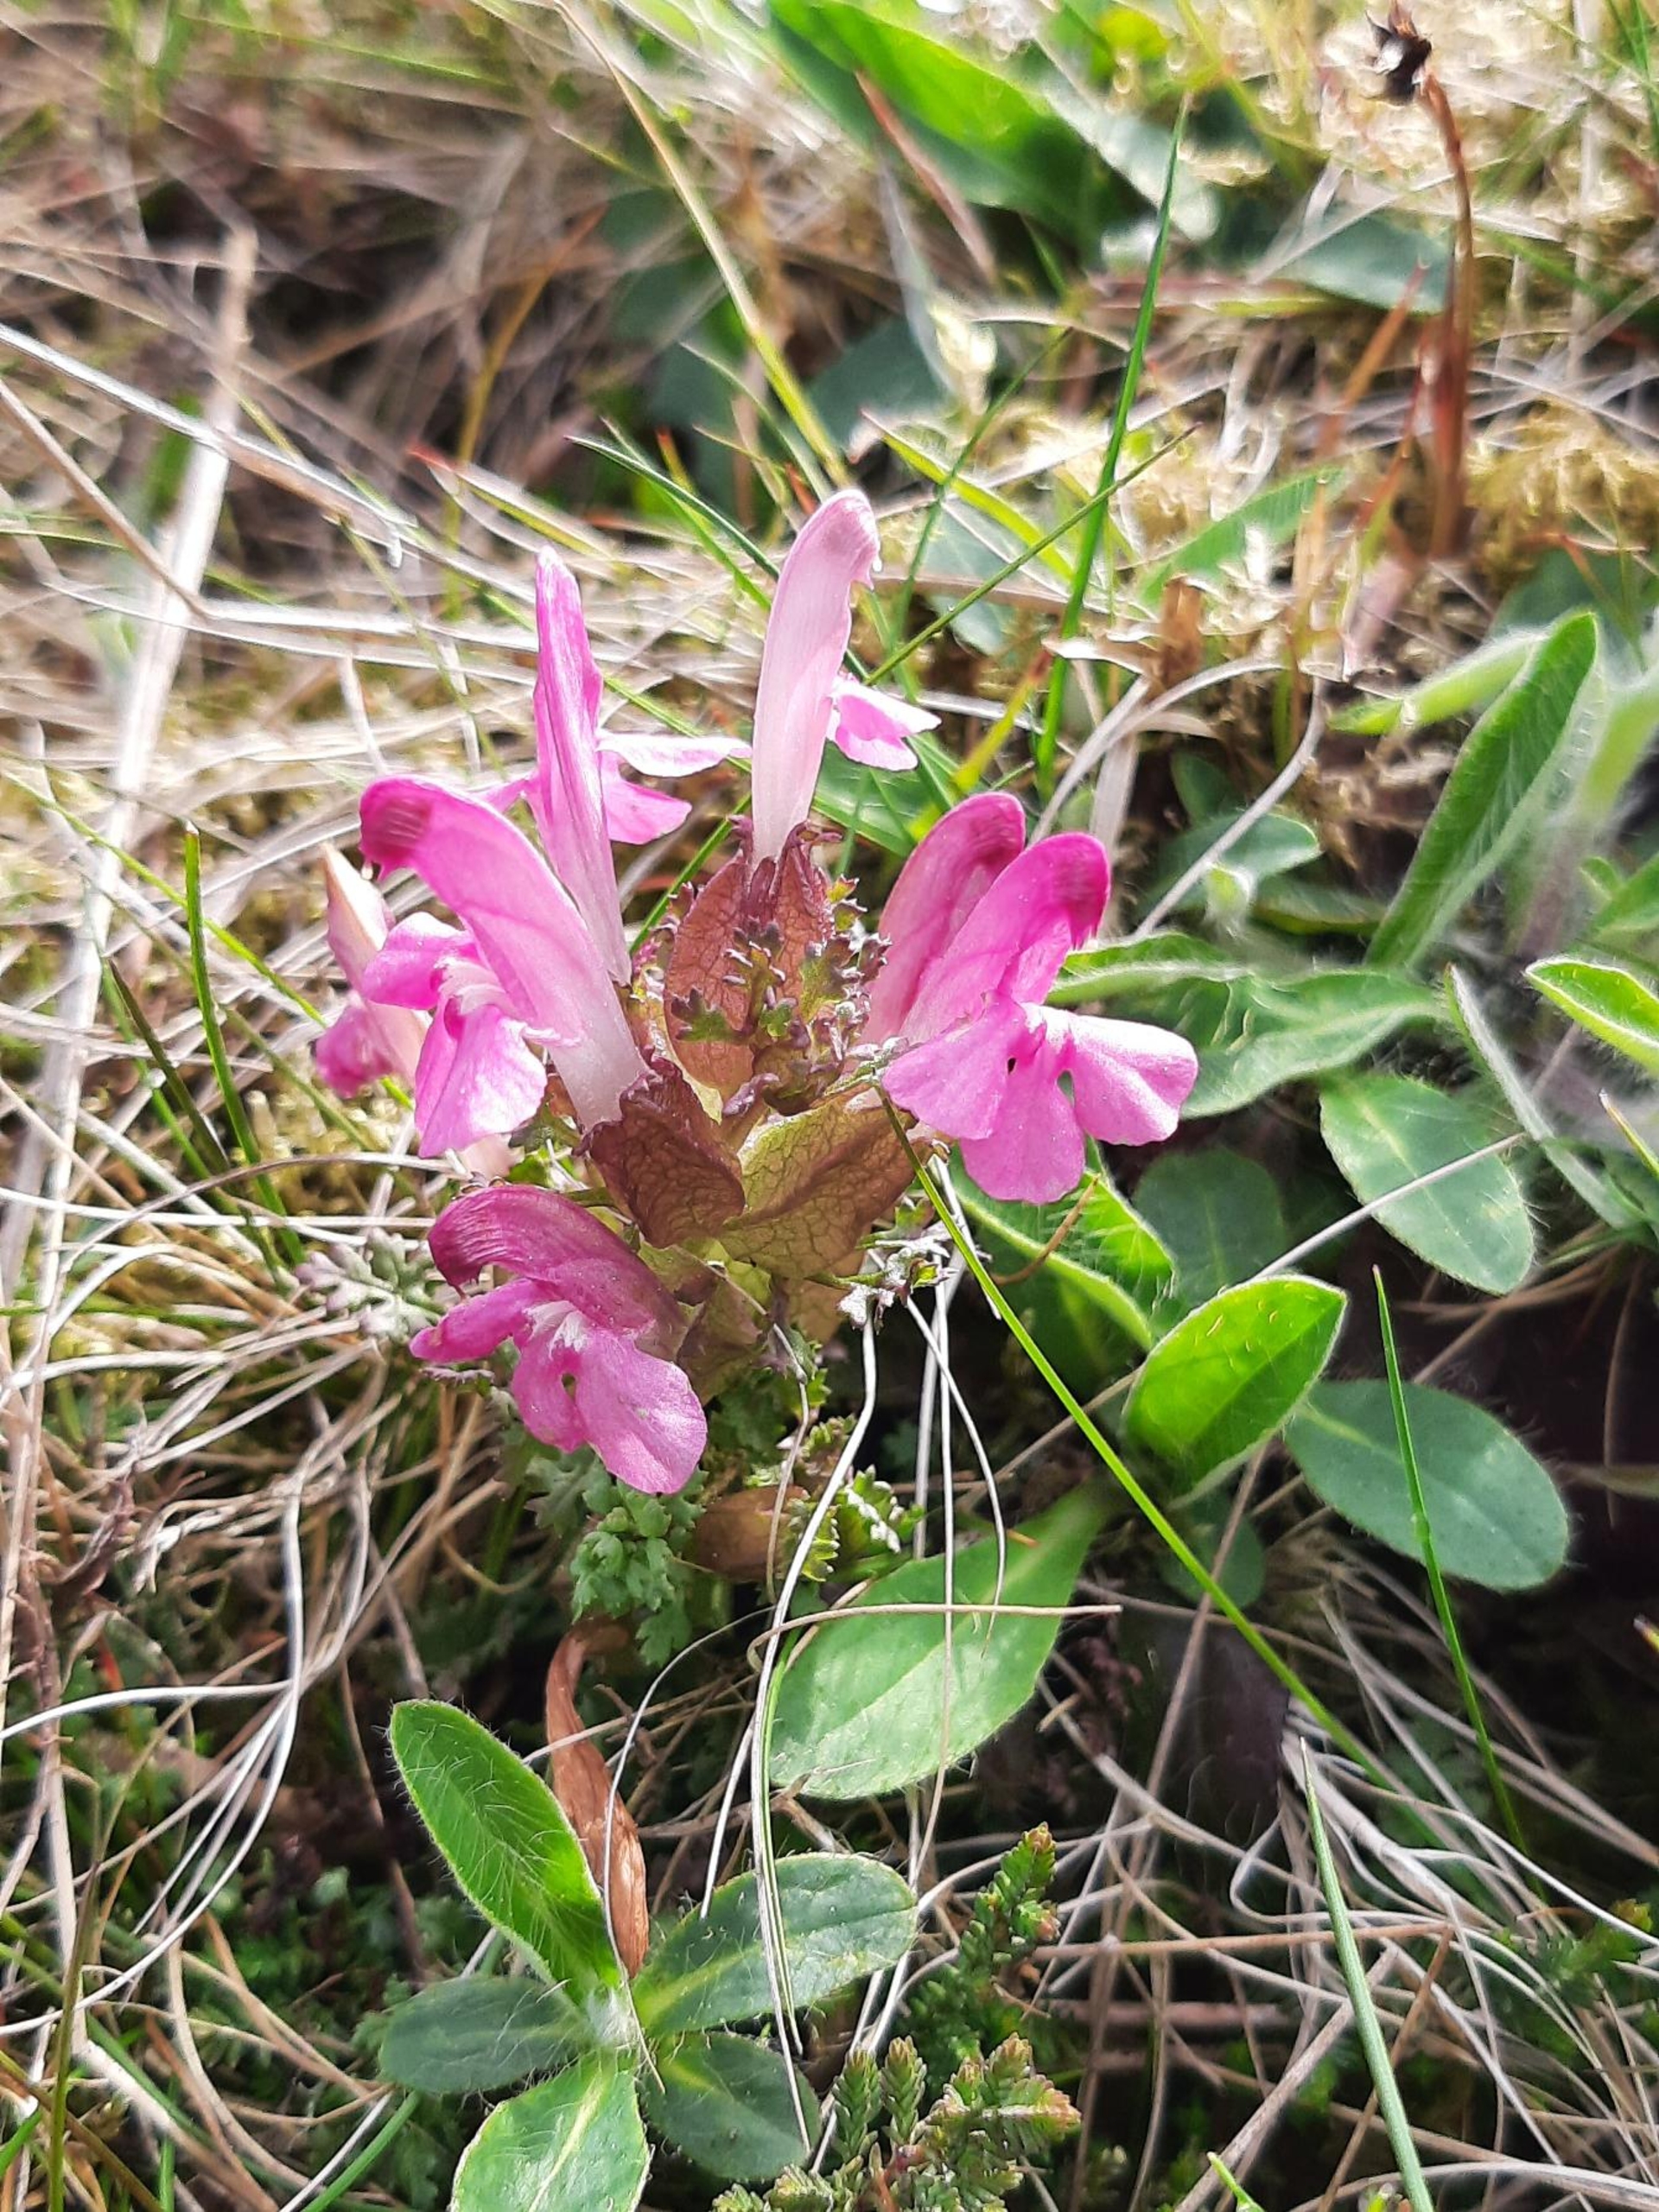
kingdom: Plantae
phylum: Tracheophyta
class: Magnoliopsida
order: Lamiales
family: Orobanchaceae
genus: Pedicularis
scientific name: Pedicularis sylvatica
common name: Mose-troldurt
